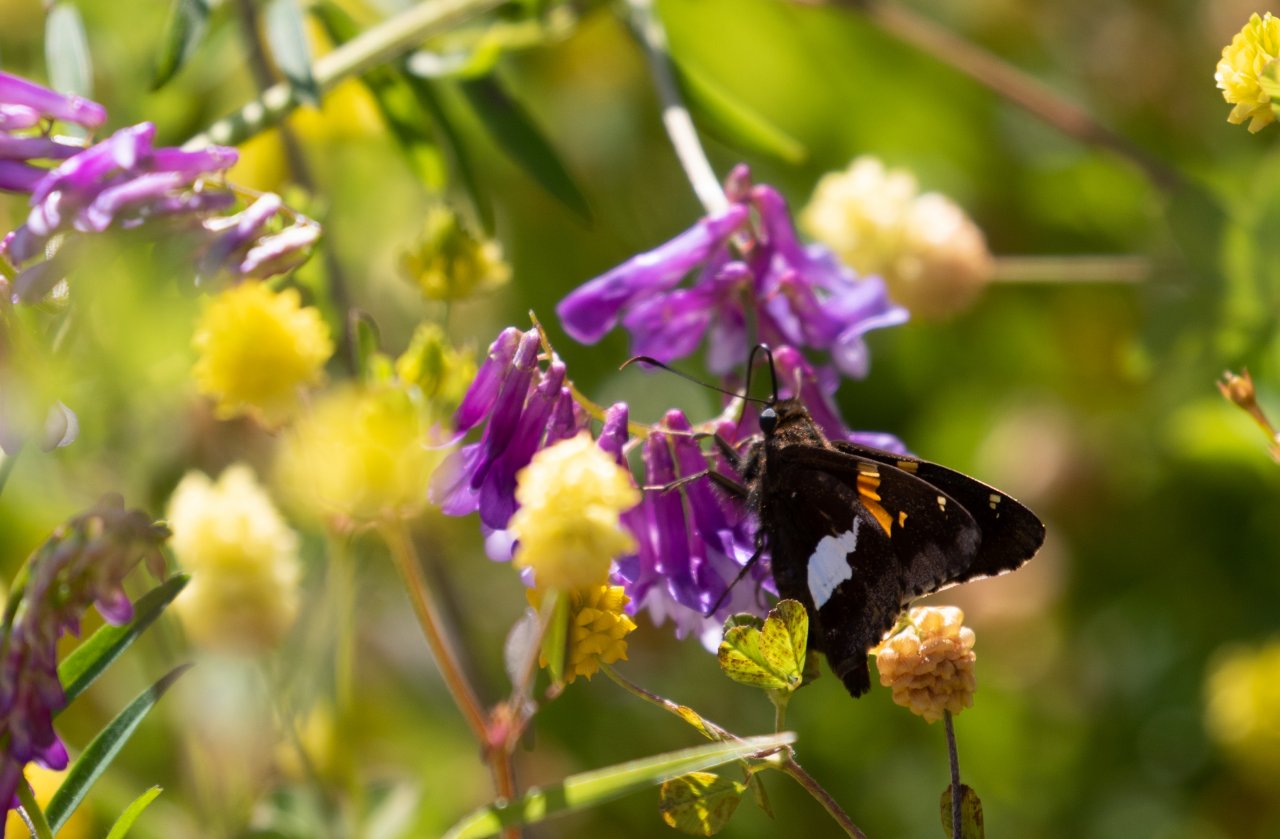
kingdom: Animalia
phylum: Arthropoda
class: Insecta
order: Lepidoptera
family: Hesperiidae
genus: Epargyreus
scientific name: Epargyreus clarus
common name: Silver-spotted Skipper
